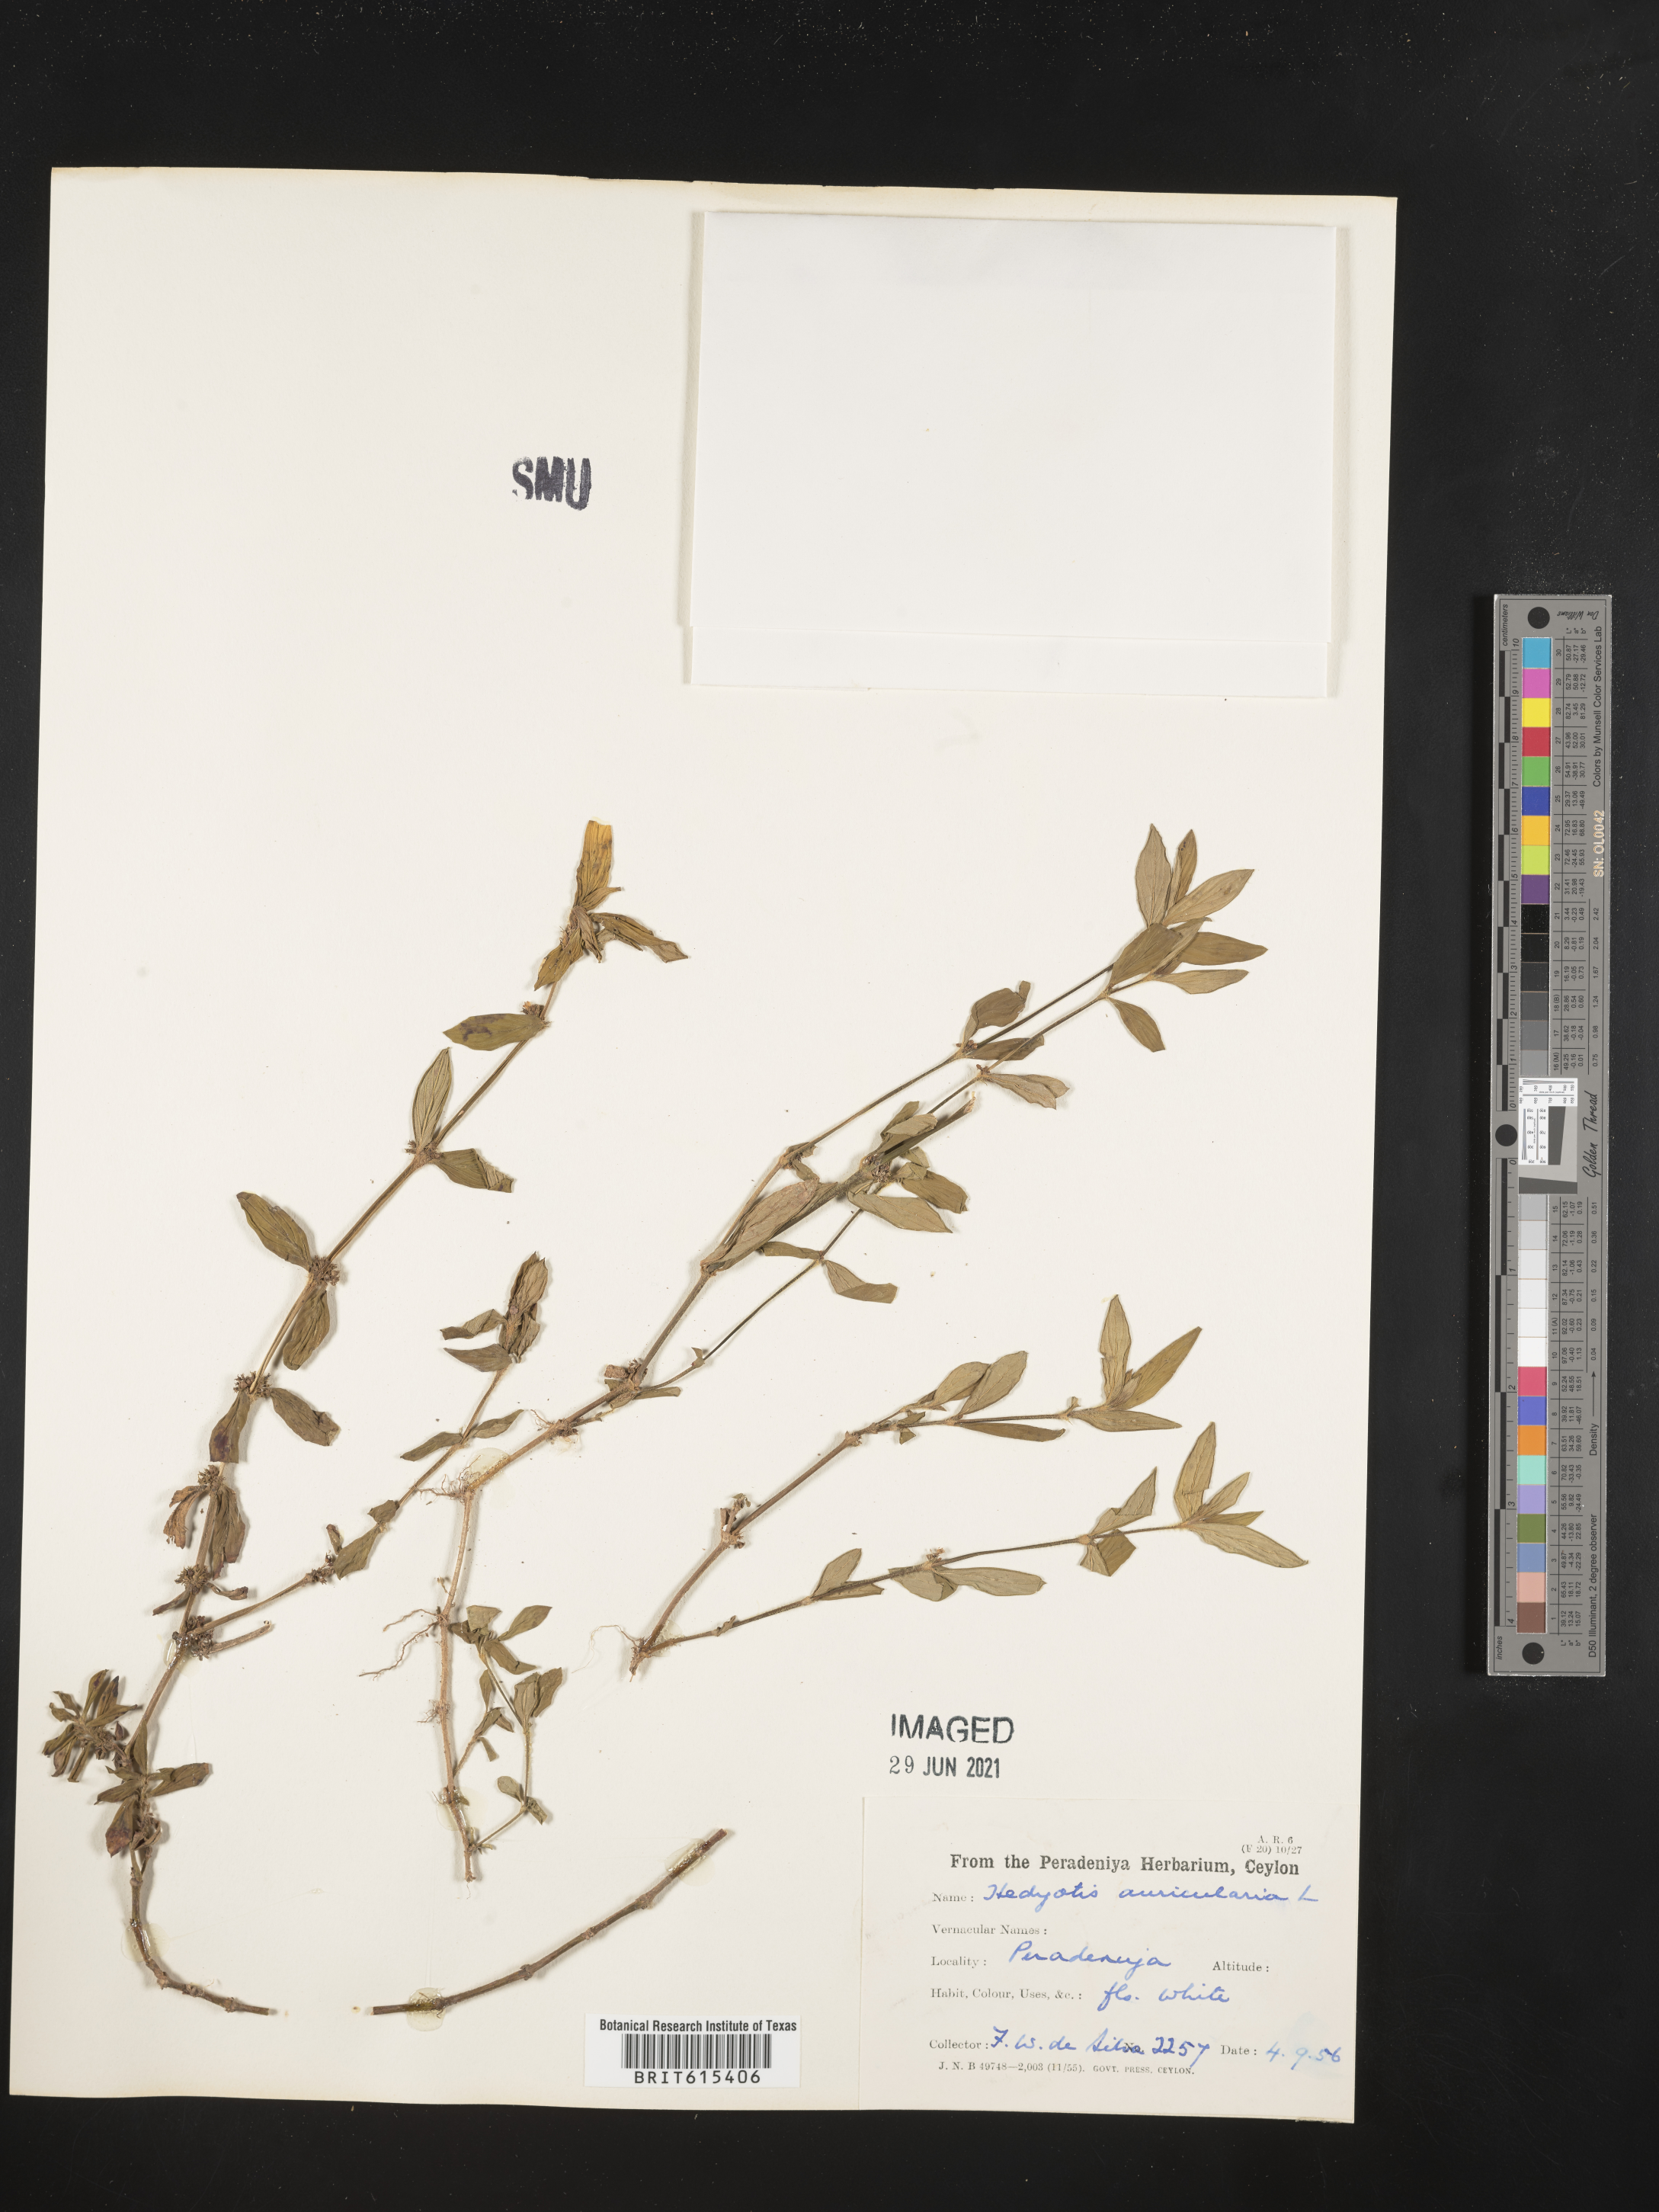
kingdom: Plantae
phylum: Tracheophyta
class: Magnoliopsida
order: Gentianales
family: Rubiaceae
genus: Edrastima
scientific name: Edrastima uniflora
